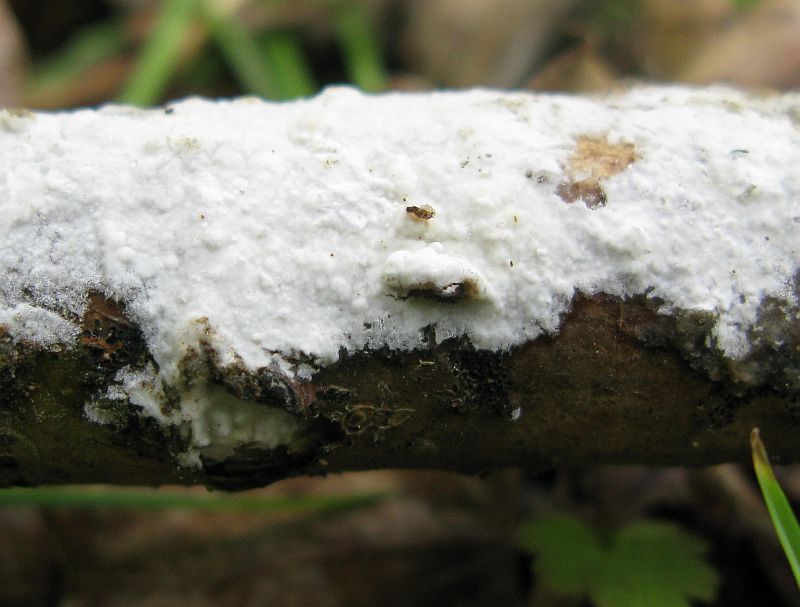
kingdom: Fungi
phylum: Basidiomycota
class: Agaricomycetes
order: Polyporales
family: Phanerochaetaceae
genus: Phanerochaete
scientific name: Phanerochaete velutina
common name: dunet randtråd
